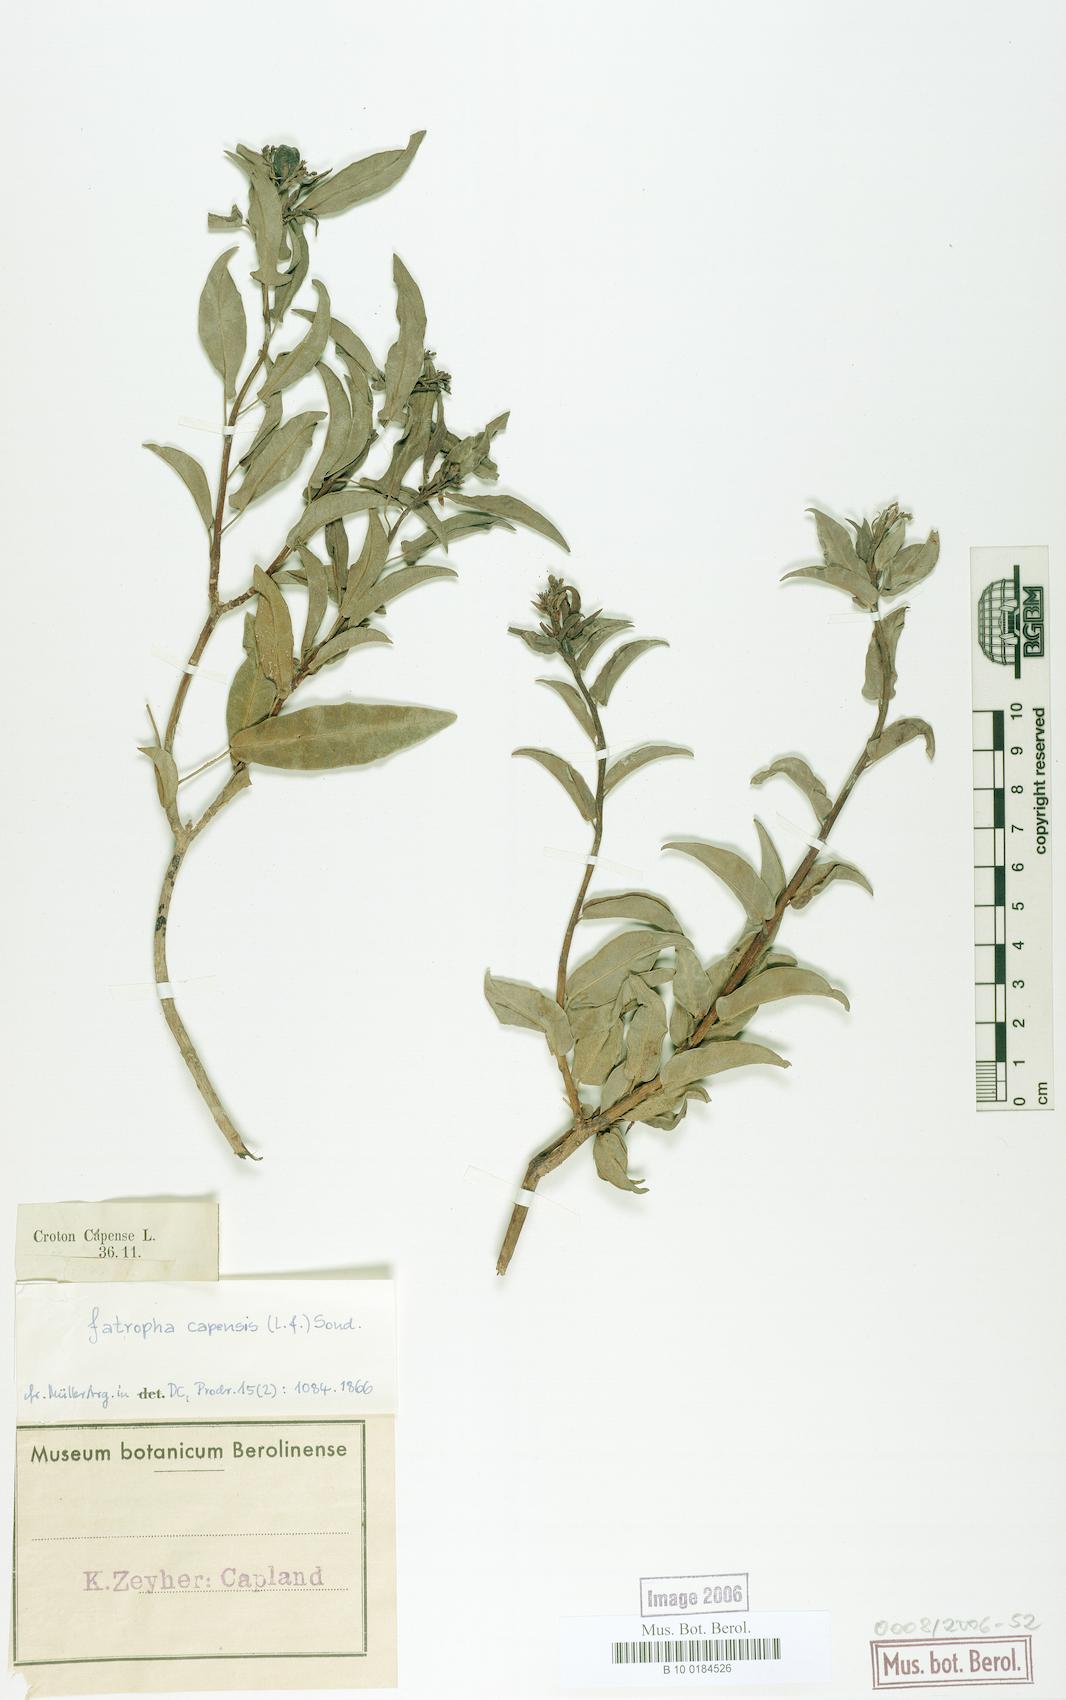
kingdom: Plantae
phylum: Tracheophyta
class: Magnoliopsida
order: Malpighiales
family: Euphorbiaceae
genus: Jatropha
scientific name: Jatropha capensis
